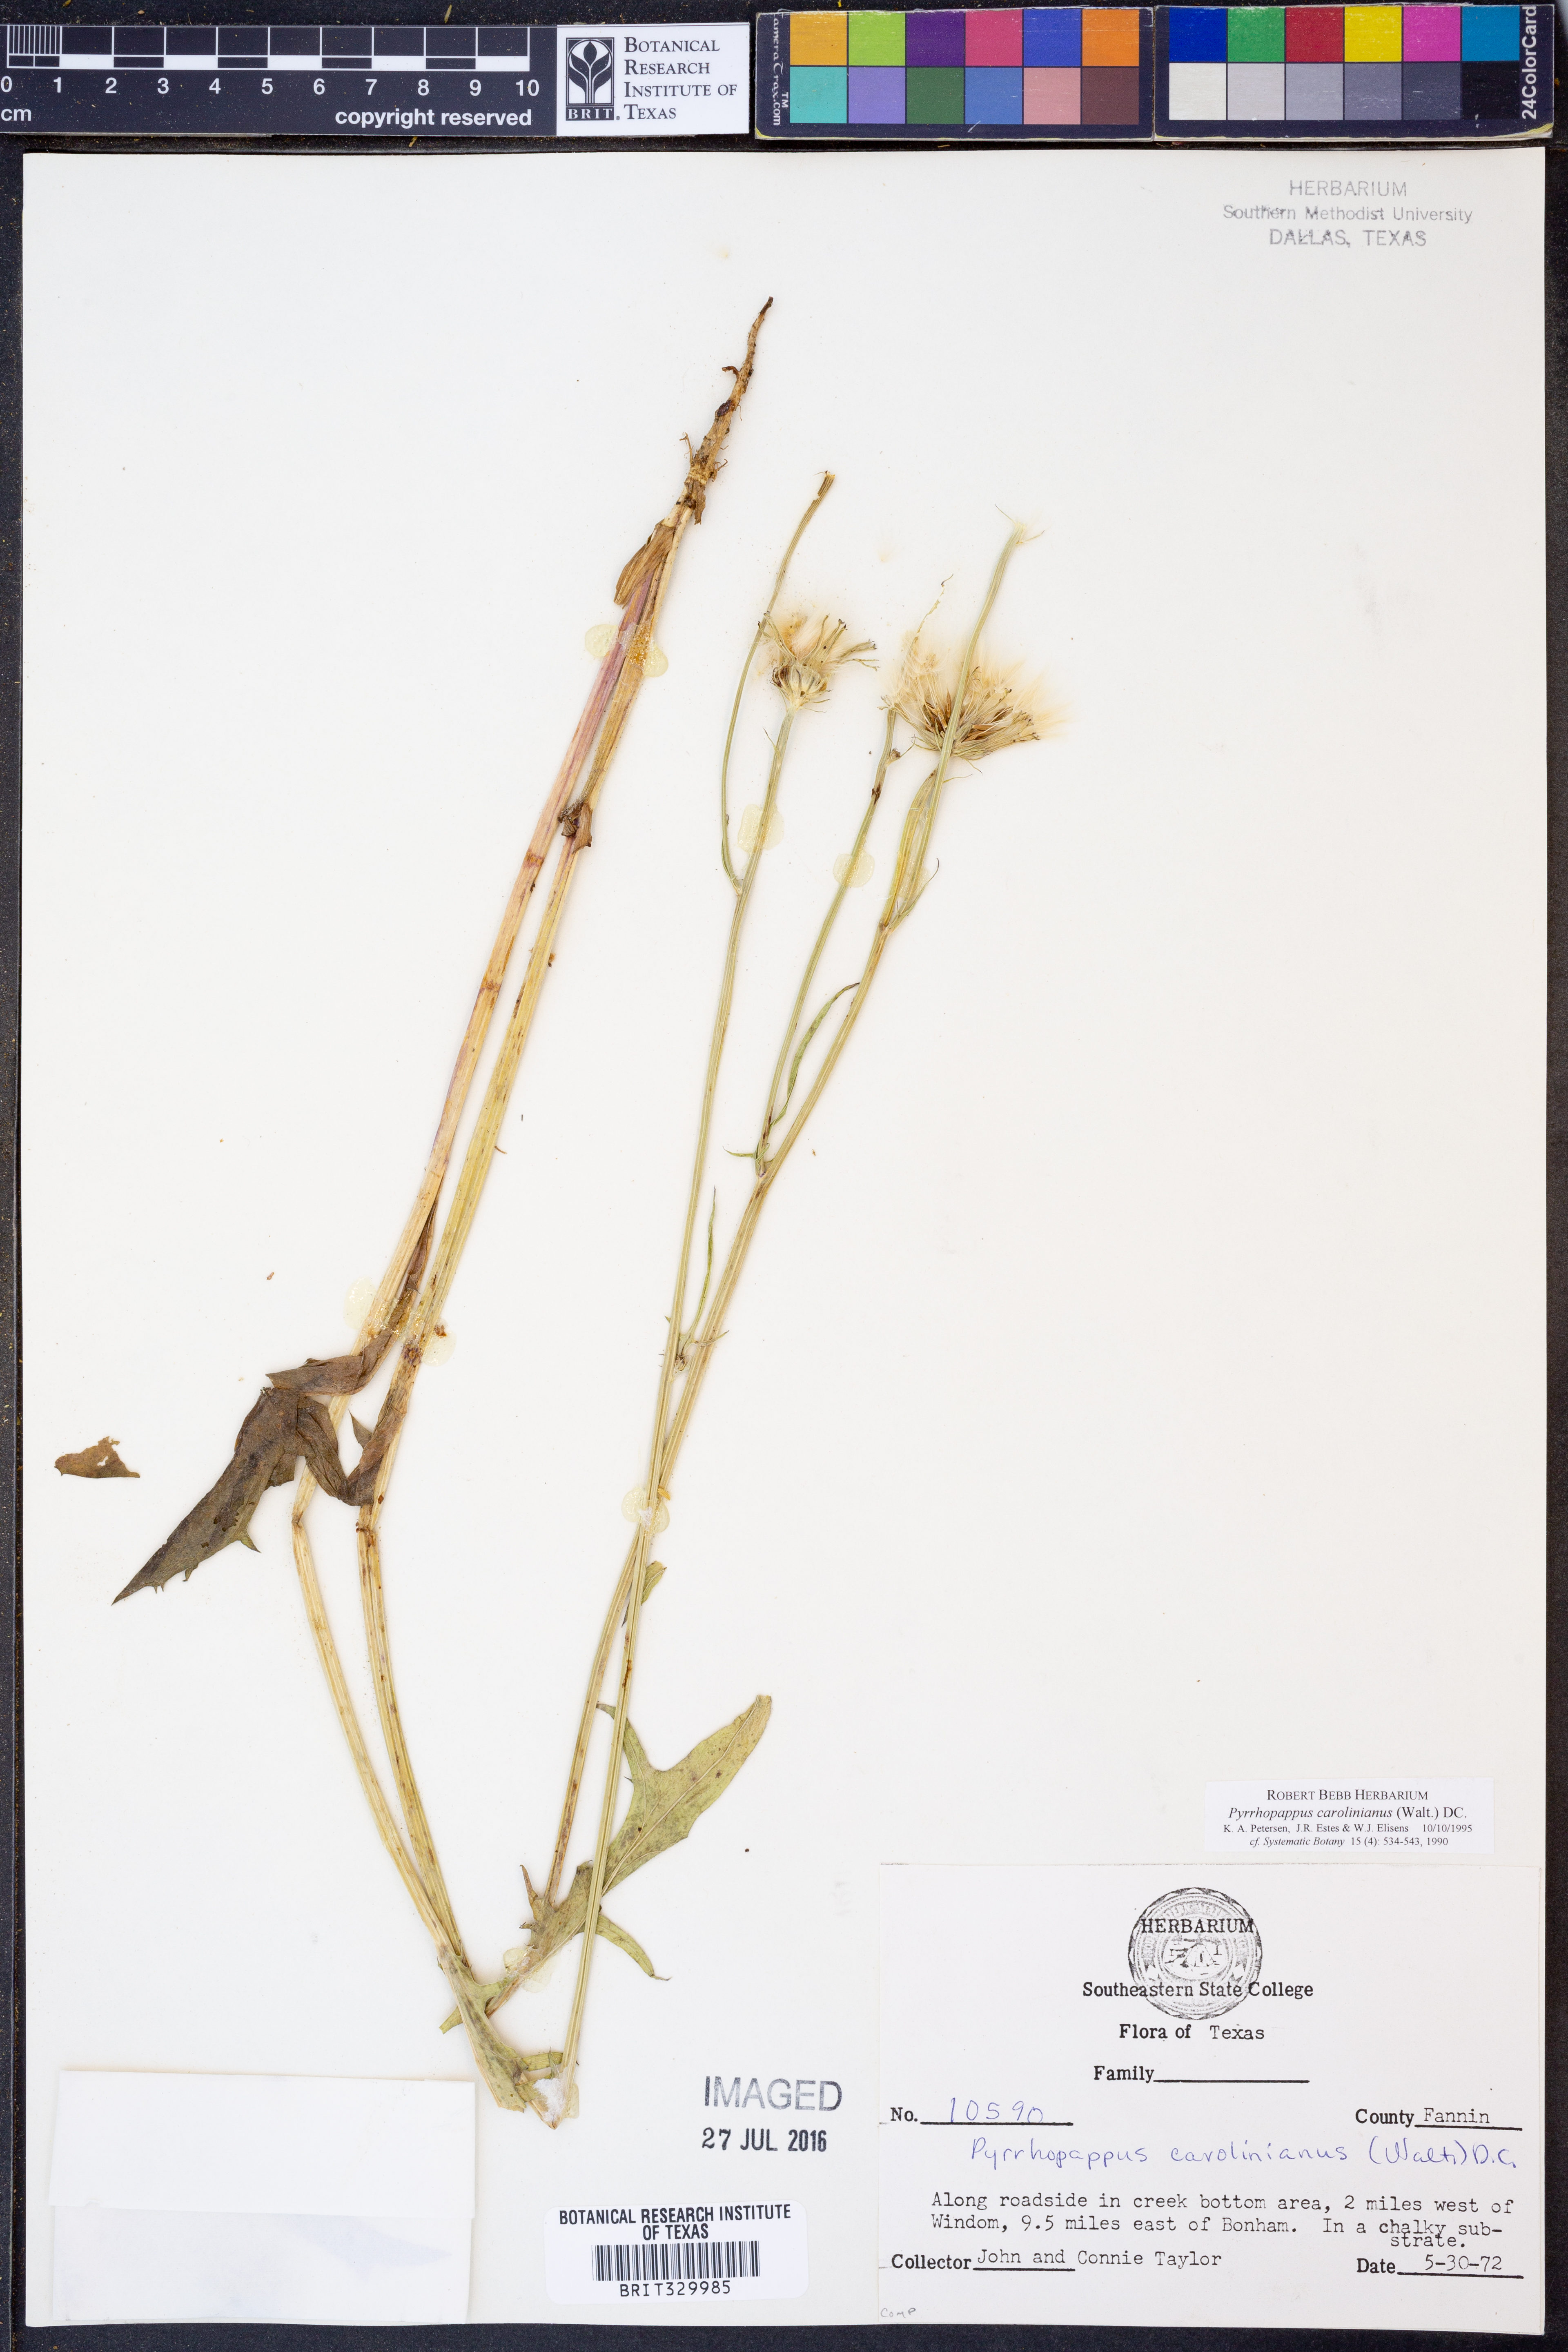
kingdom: Plantae
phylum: Tracheophyta
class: Magnoliopsida
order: Asterales
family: Asteraceae
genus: Pyrrhopappus
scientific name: Pyrrhopappus carolinianus
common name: Carolina desert-chicory
